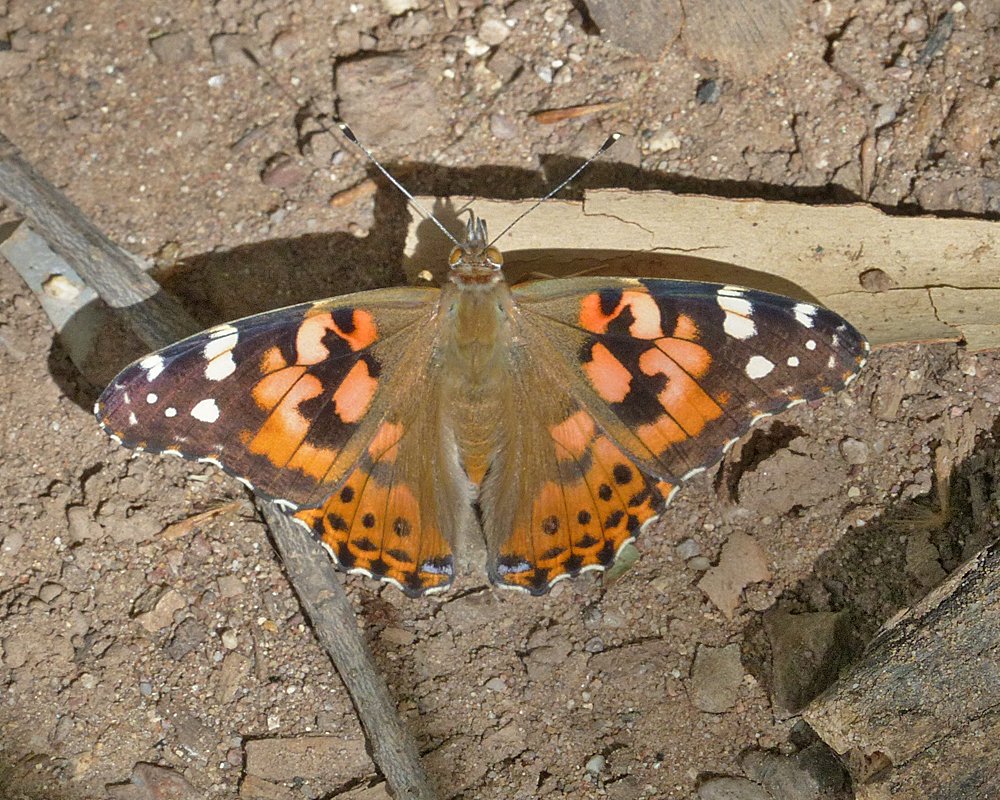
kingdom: Animalia
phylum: Arthropoda
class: Insecta
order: Lepidoptera
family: Nymphalidae
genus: Vanessa
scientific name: Vanessa cardui
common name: Painted Lady
